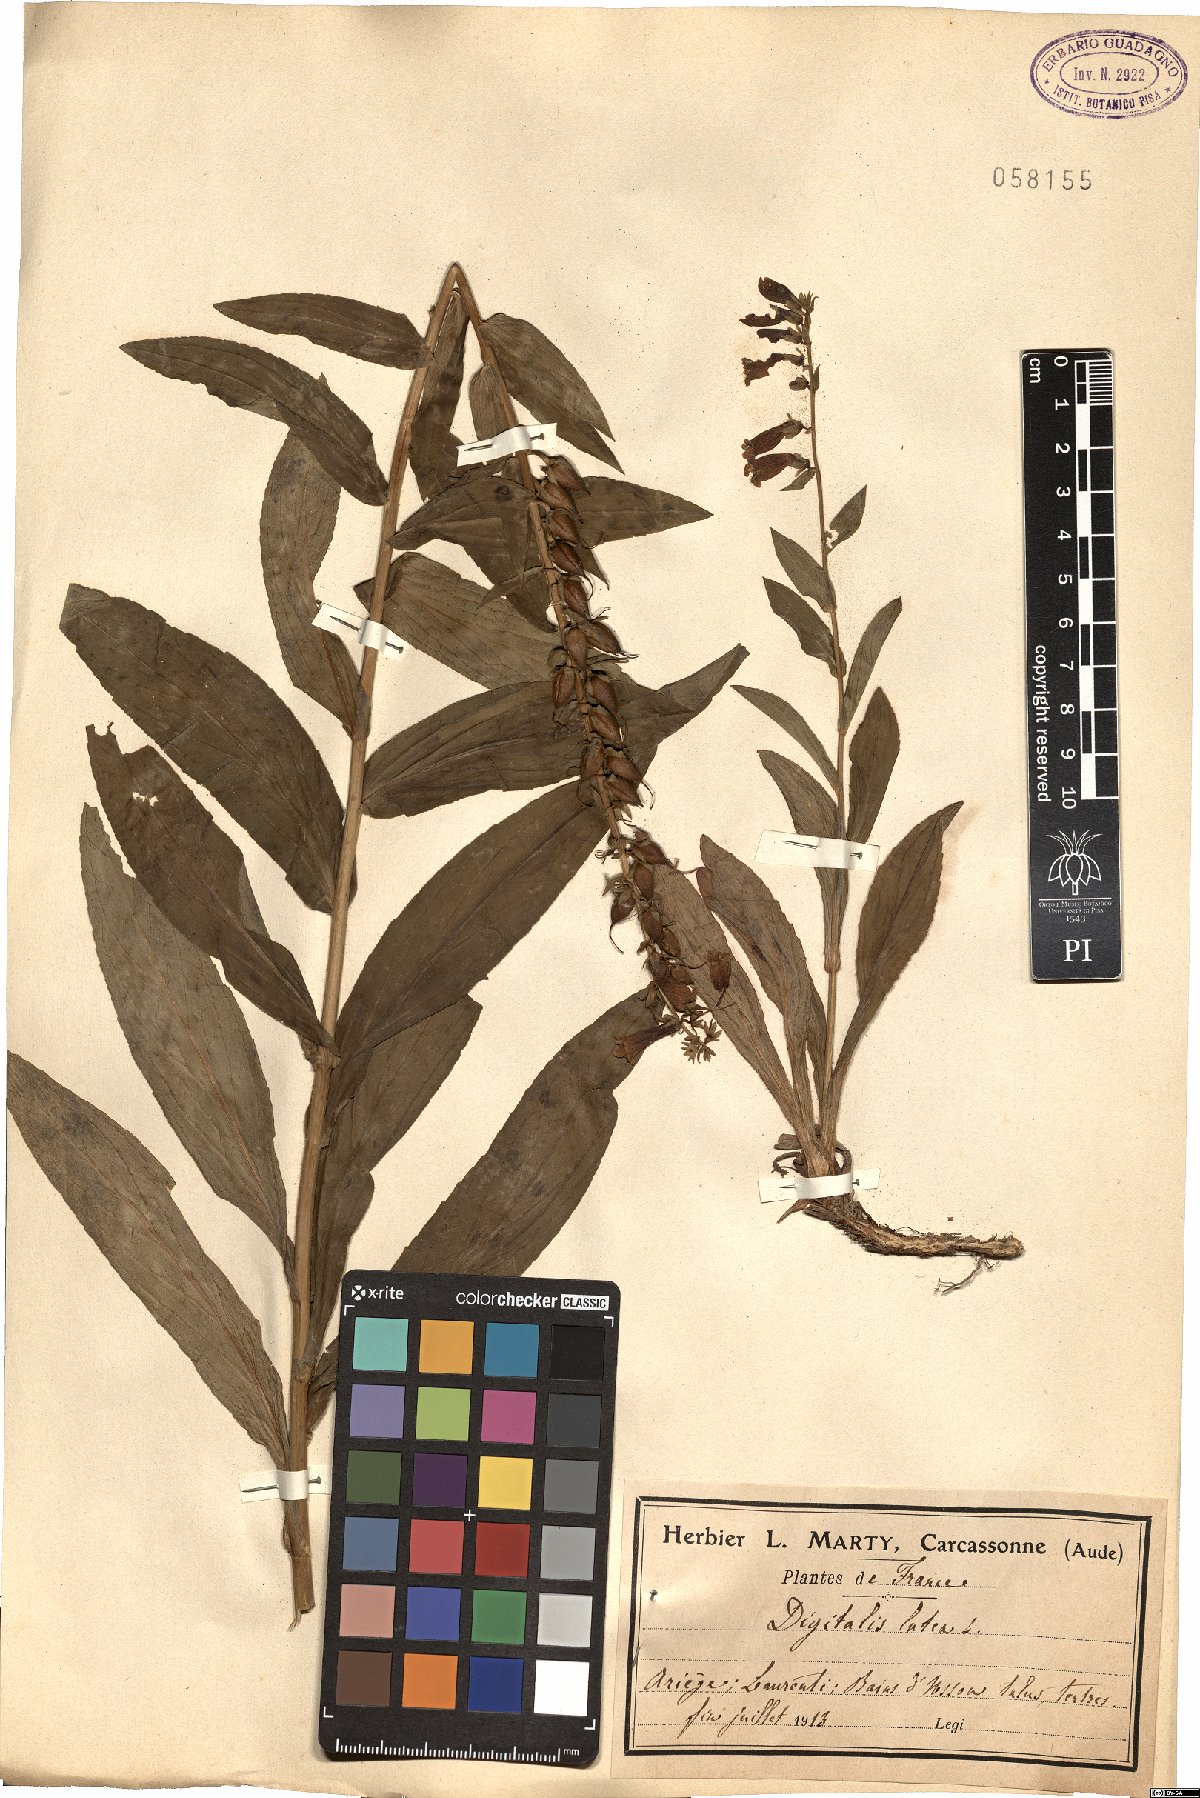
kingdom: Plantae
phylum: Tracheophyta
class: Magnoliopsida
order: Lamiales
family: Plantaginaceae
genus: Digitalis
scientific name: Digitalis lutea
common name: Straw foxglove
